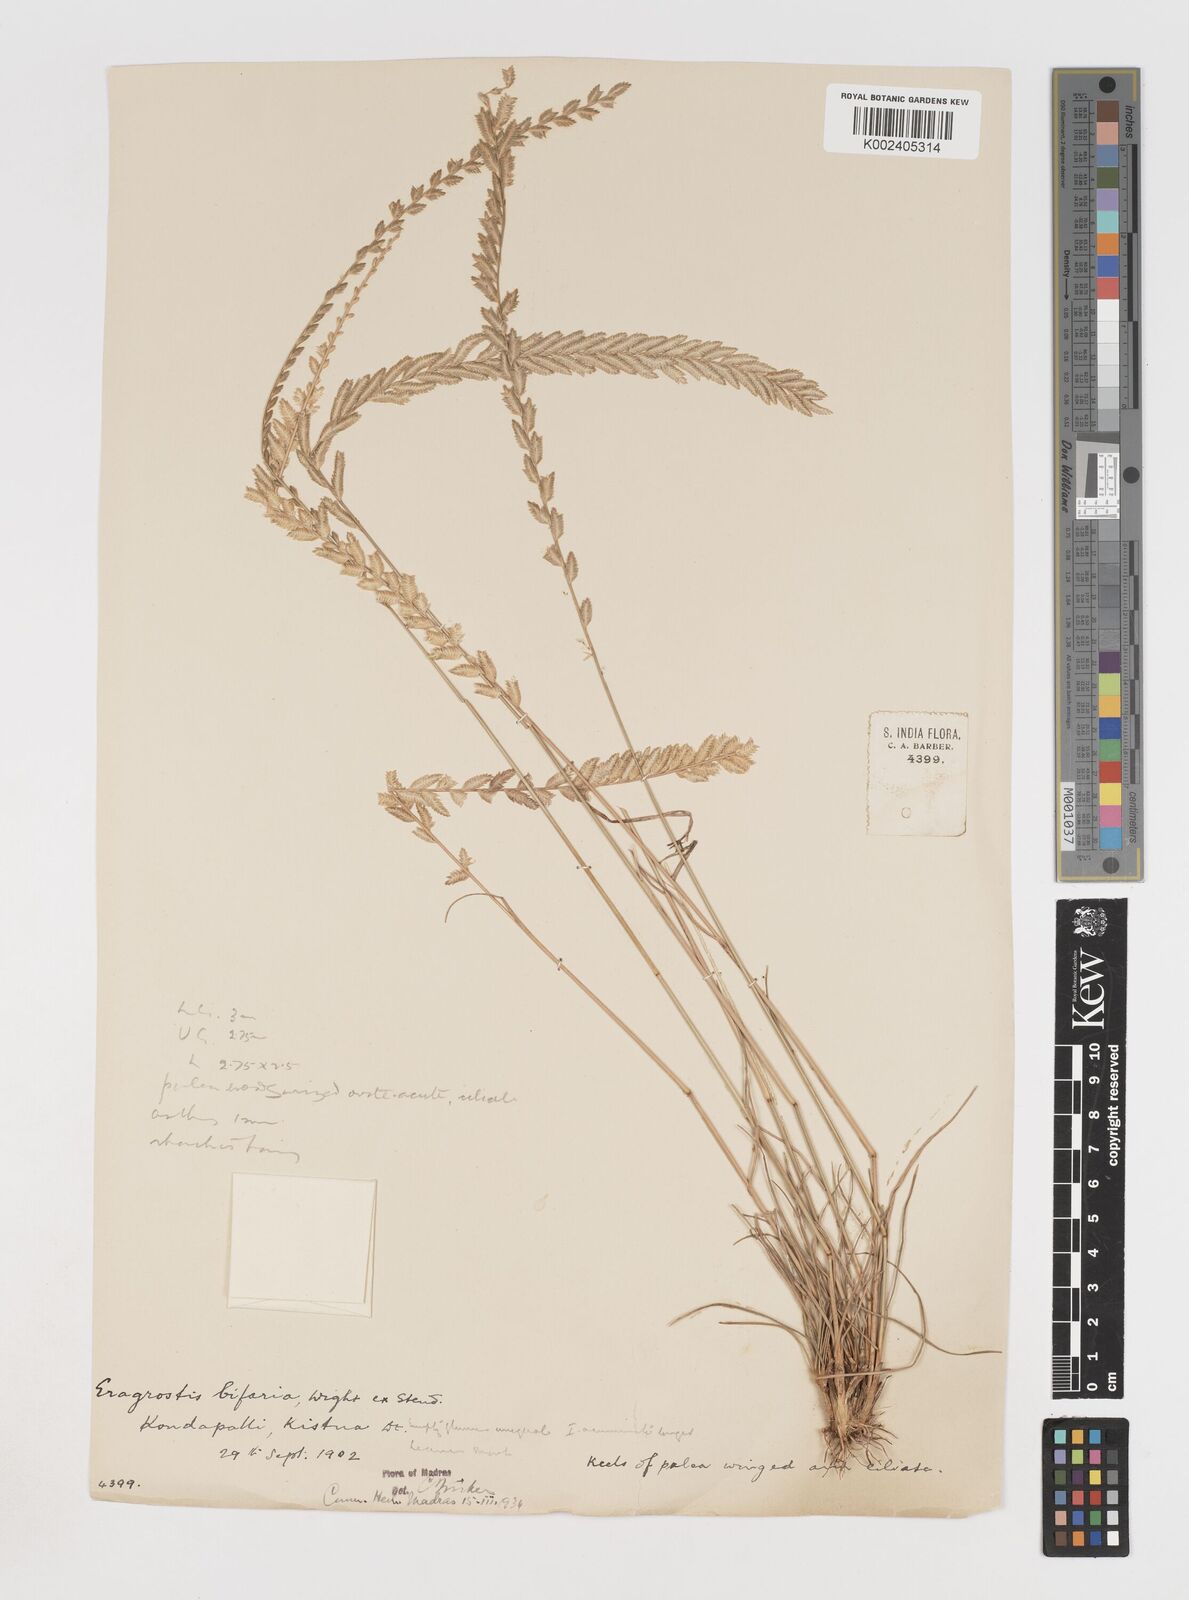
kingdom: Plantae
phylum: Tracheophyta
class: Liliopsida
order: Poales
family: Poaceae
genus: Eragrostiella
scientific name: Eragrostiella bifaria
